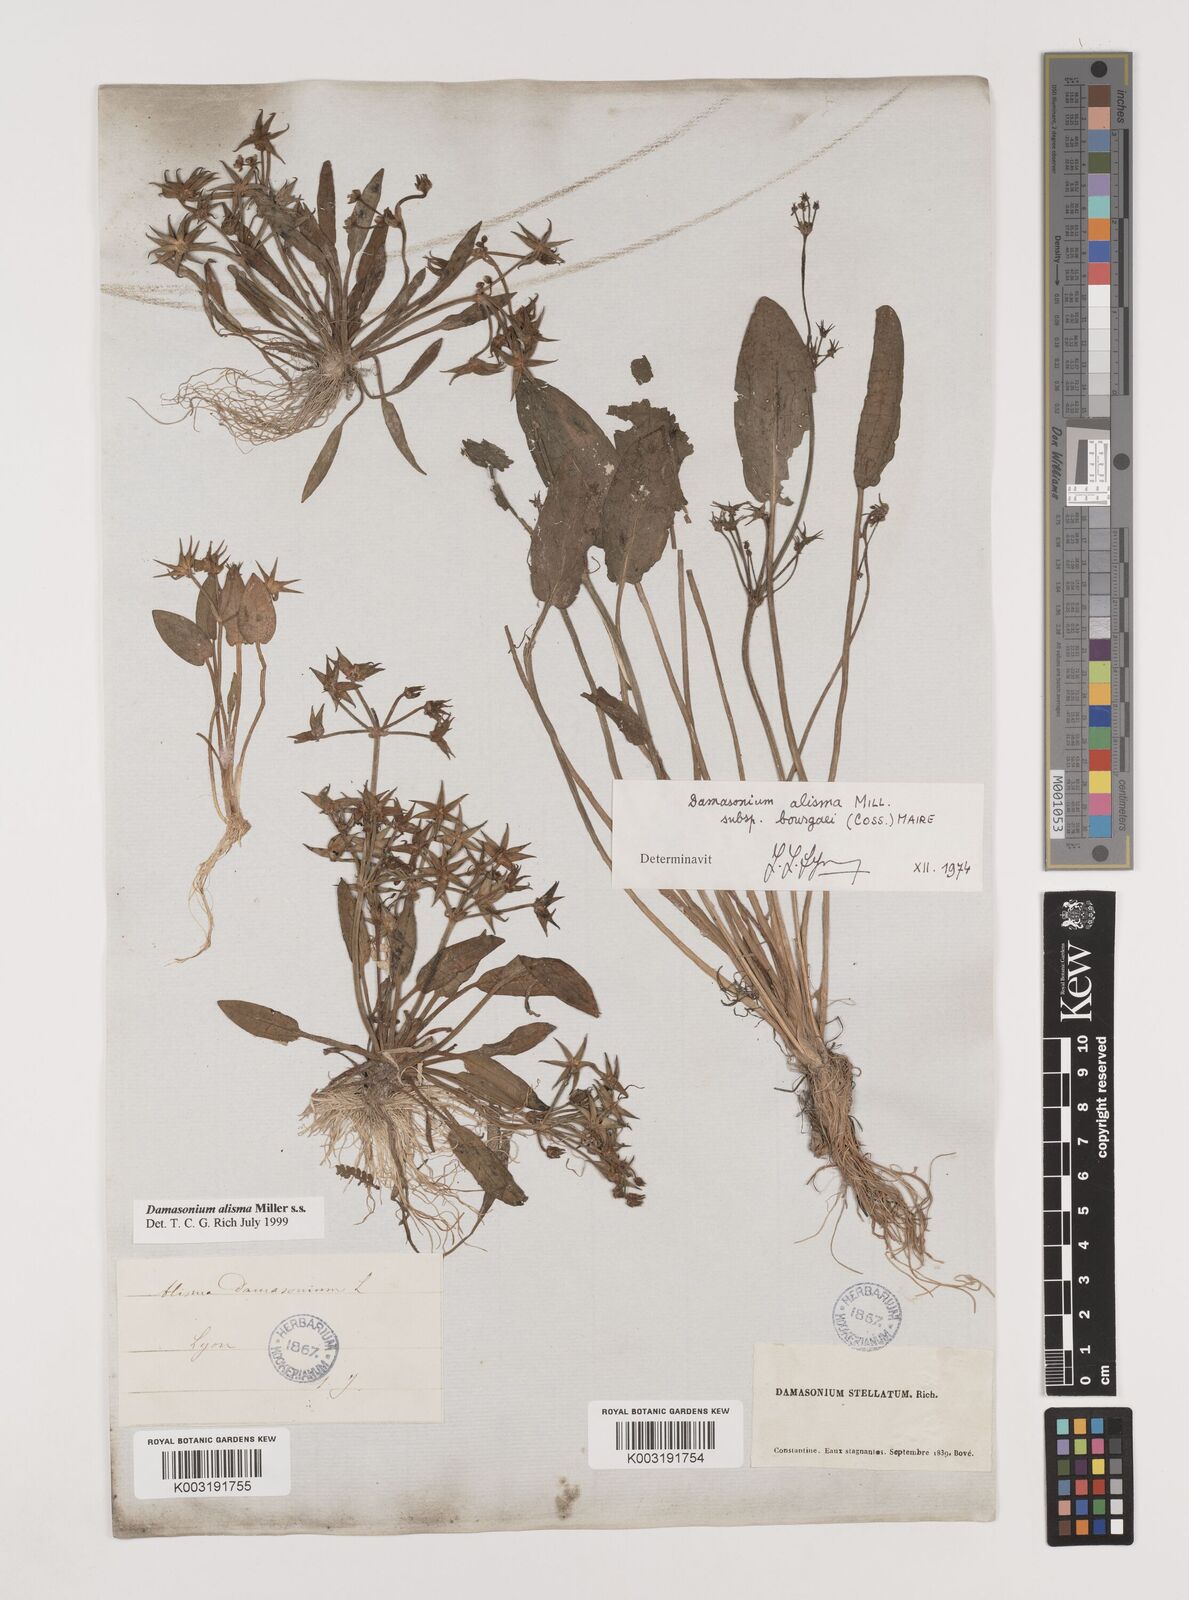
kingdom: Plantae
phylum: Tracheophyta
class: Liliopsida
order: Alismatales
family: Alismataceae
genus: Damasonium
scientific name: Damasonium bourgaei
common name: Starfruit
